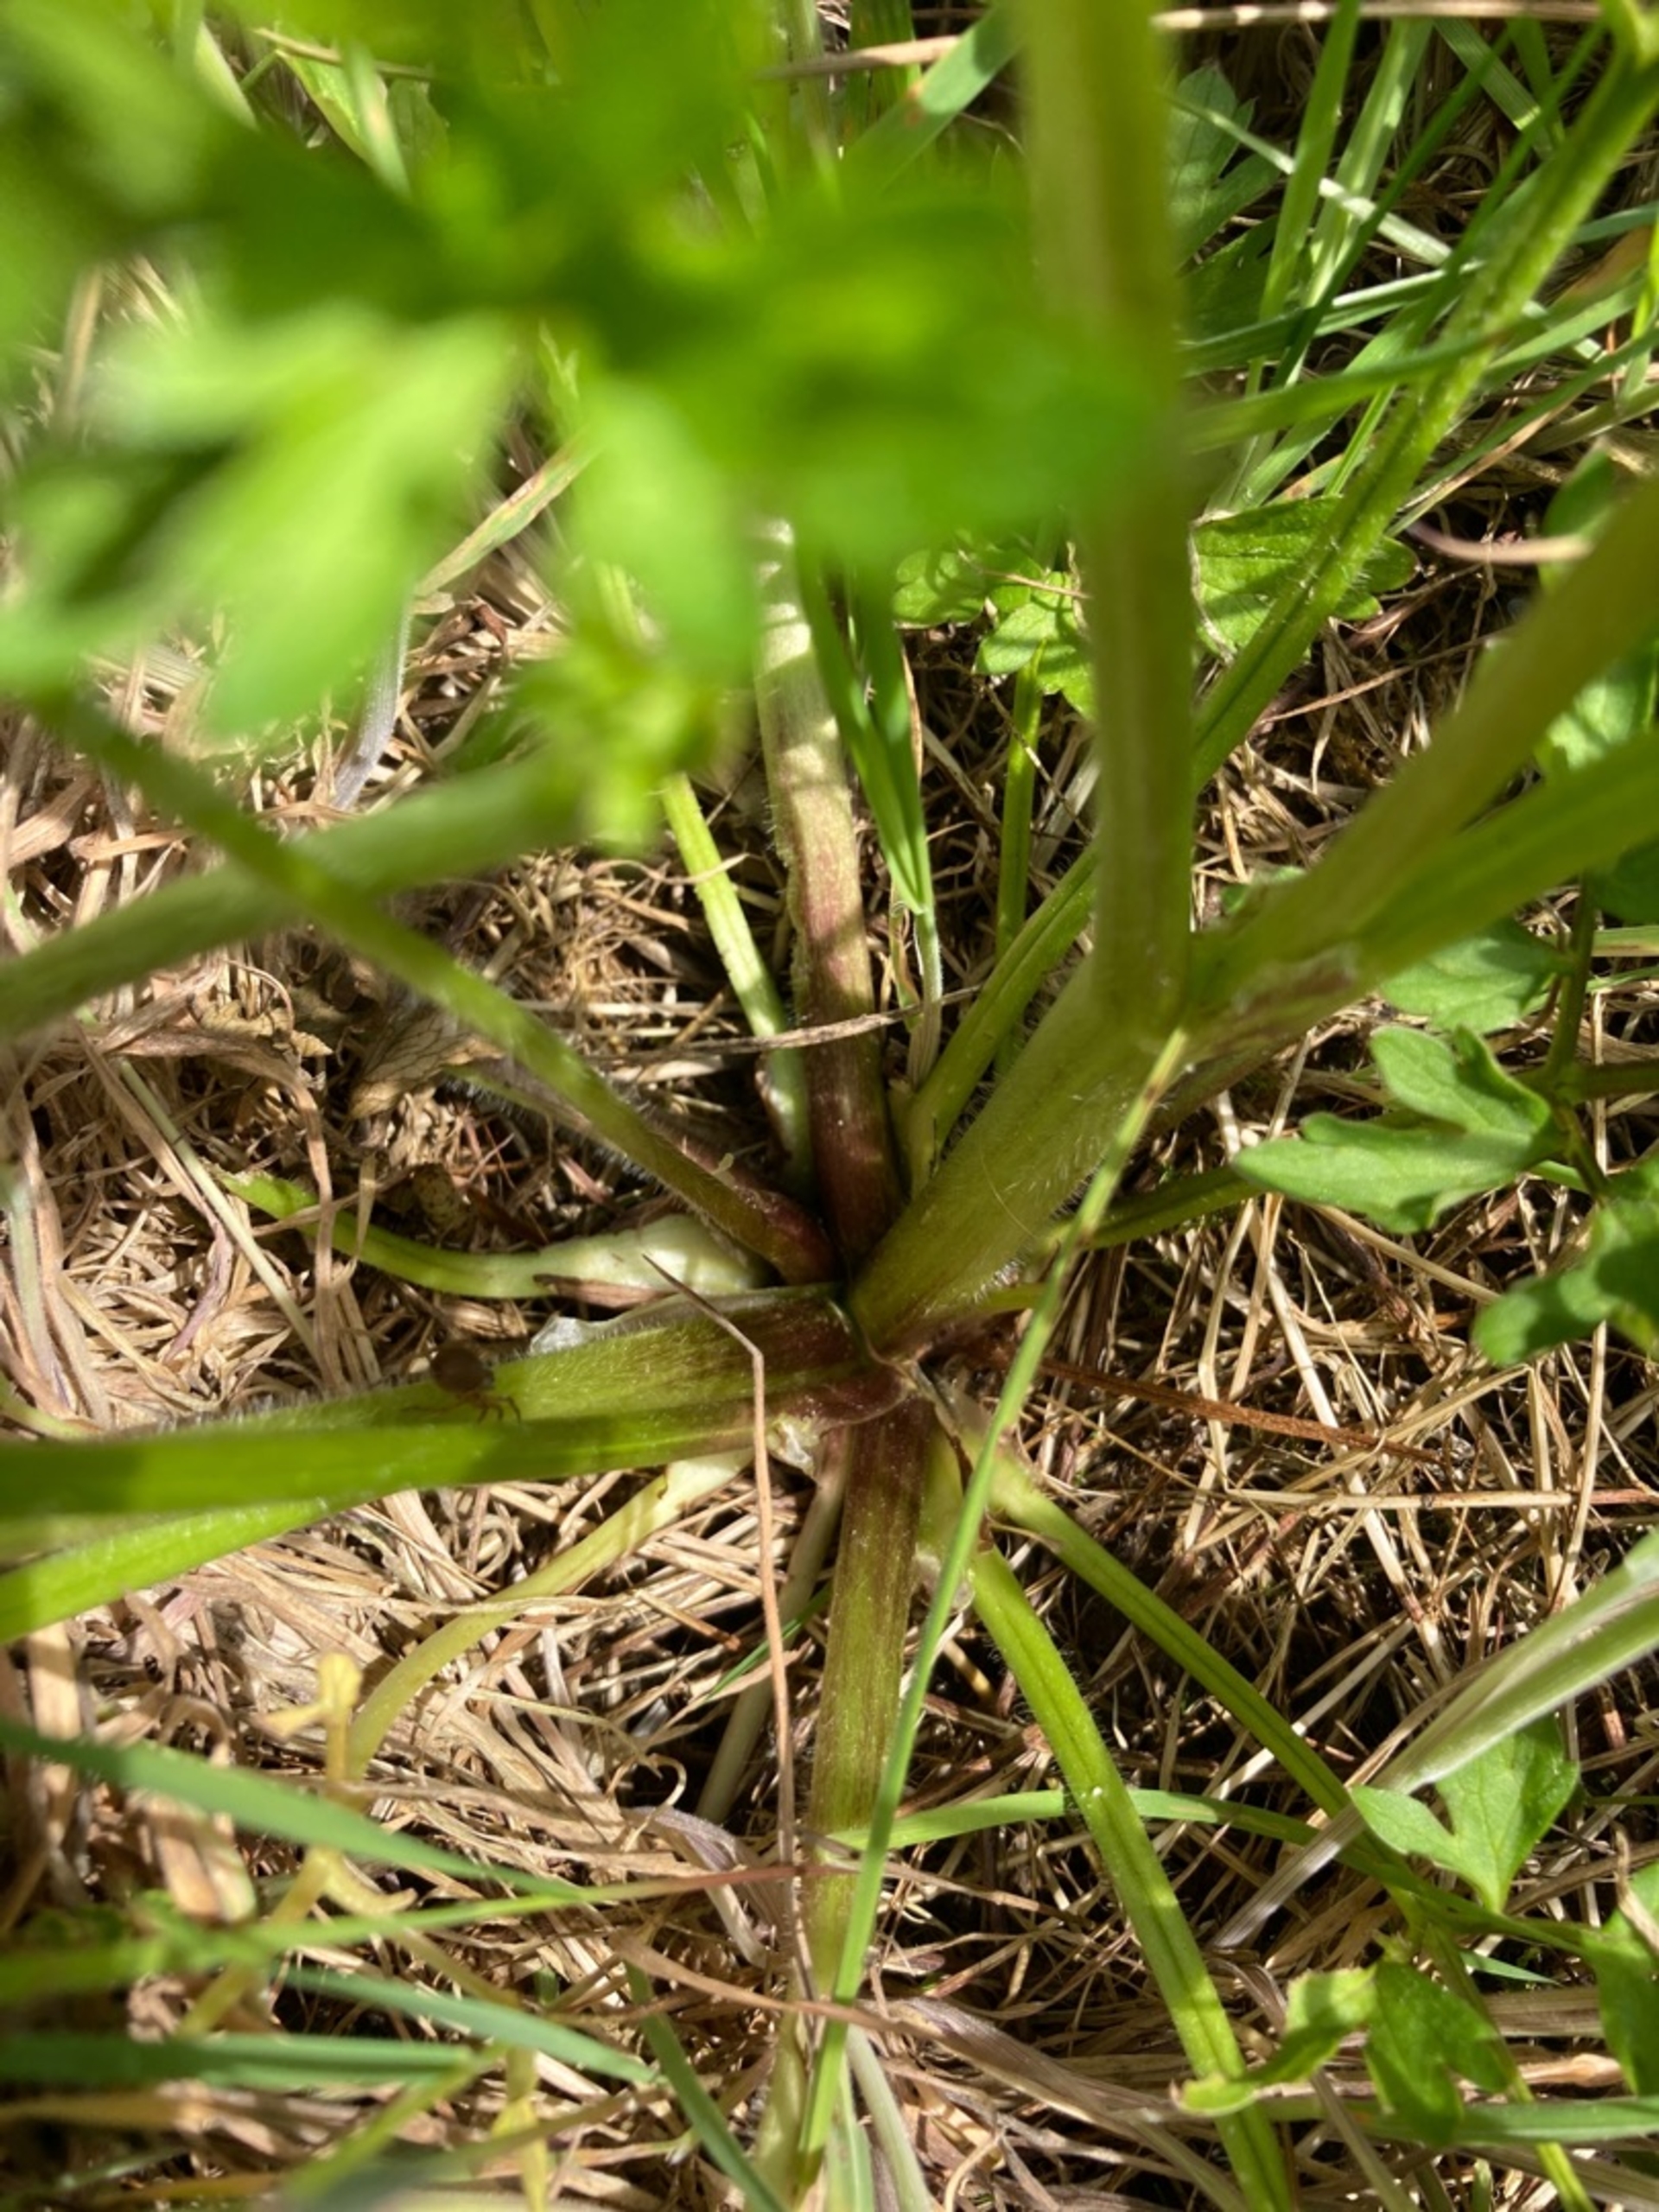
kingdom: Plantae
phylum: Tracheophyta
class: Magnoliopsida
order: Ranunculales
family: Ranunculaceae
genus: Ranunculus
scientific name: Ranunculus repens
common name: Lav ranunkel
